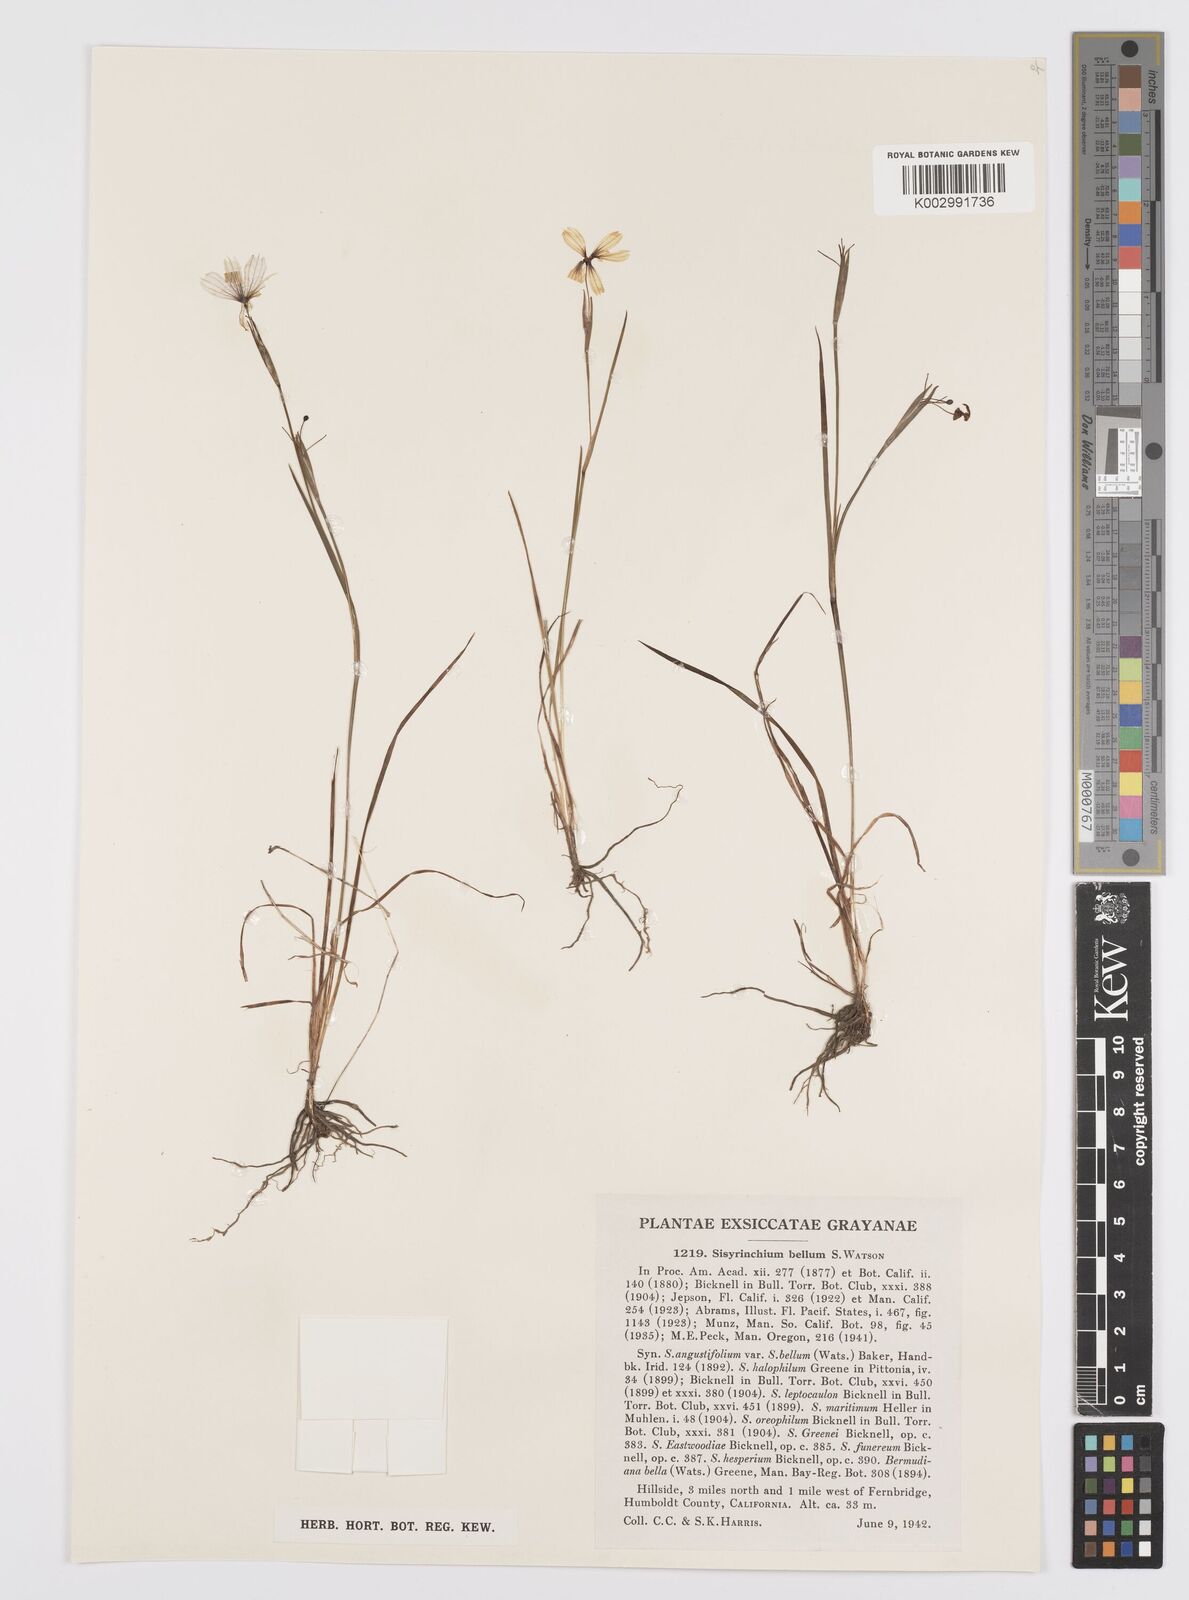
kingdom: Plantae
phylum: Tracheophyta
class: Liliopsida
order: Asparagales
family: Iridaceae
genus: Sisyrinchium
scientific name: Sisyrinchium bellum
